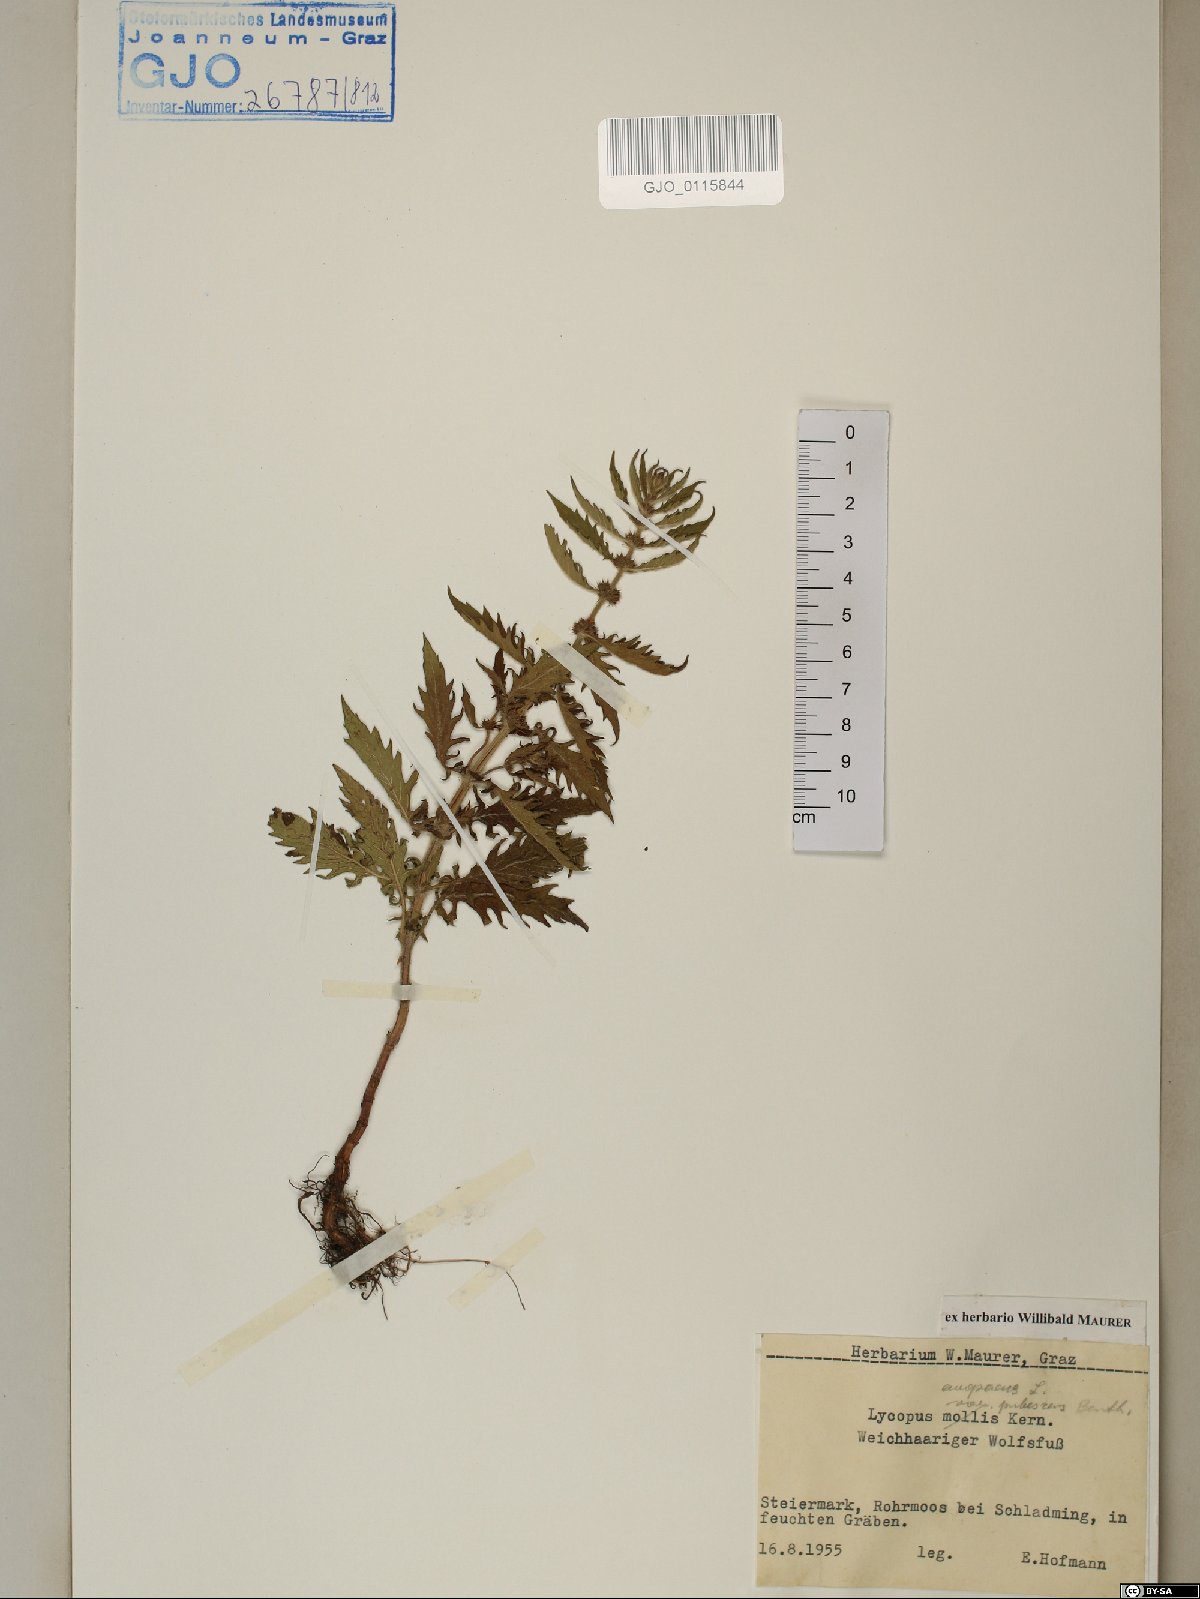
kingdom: Plantae
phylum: Tracheophyta
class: Magnoliopsida
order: Lamiales
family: Lamiaceae
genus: Lycopus
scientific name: Lycopus europaeus
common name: European bugleweed
